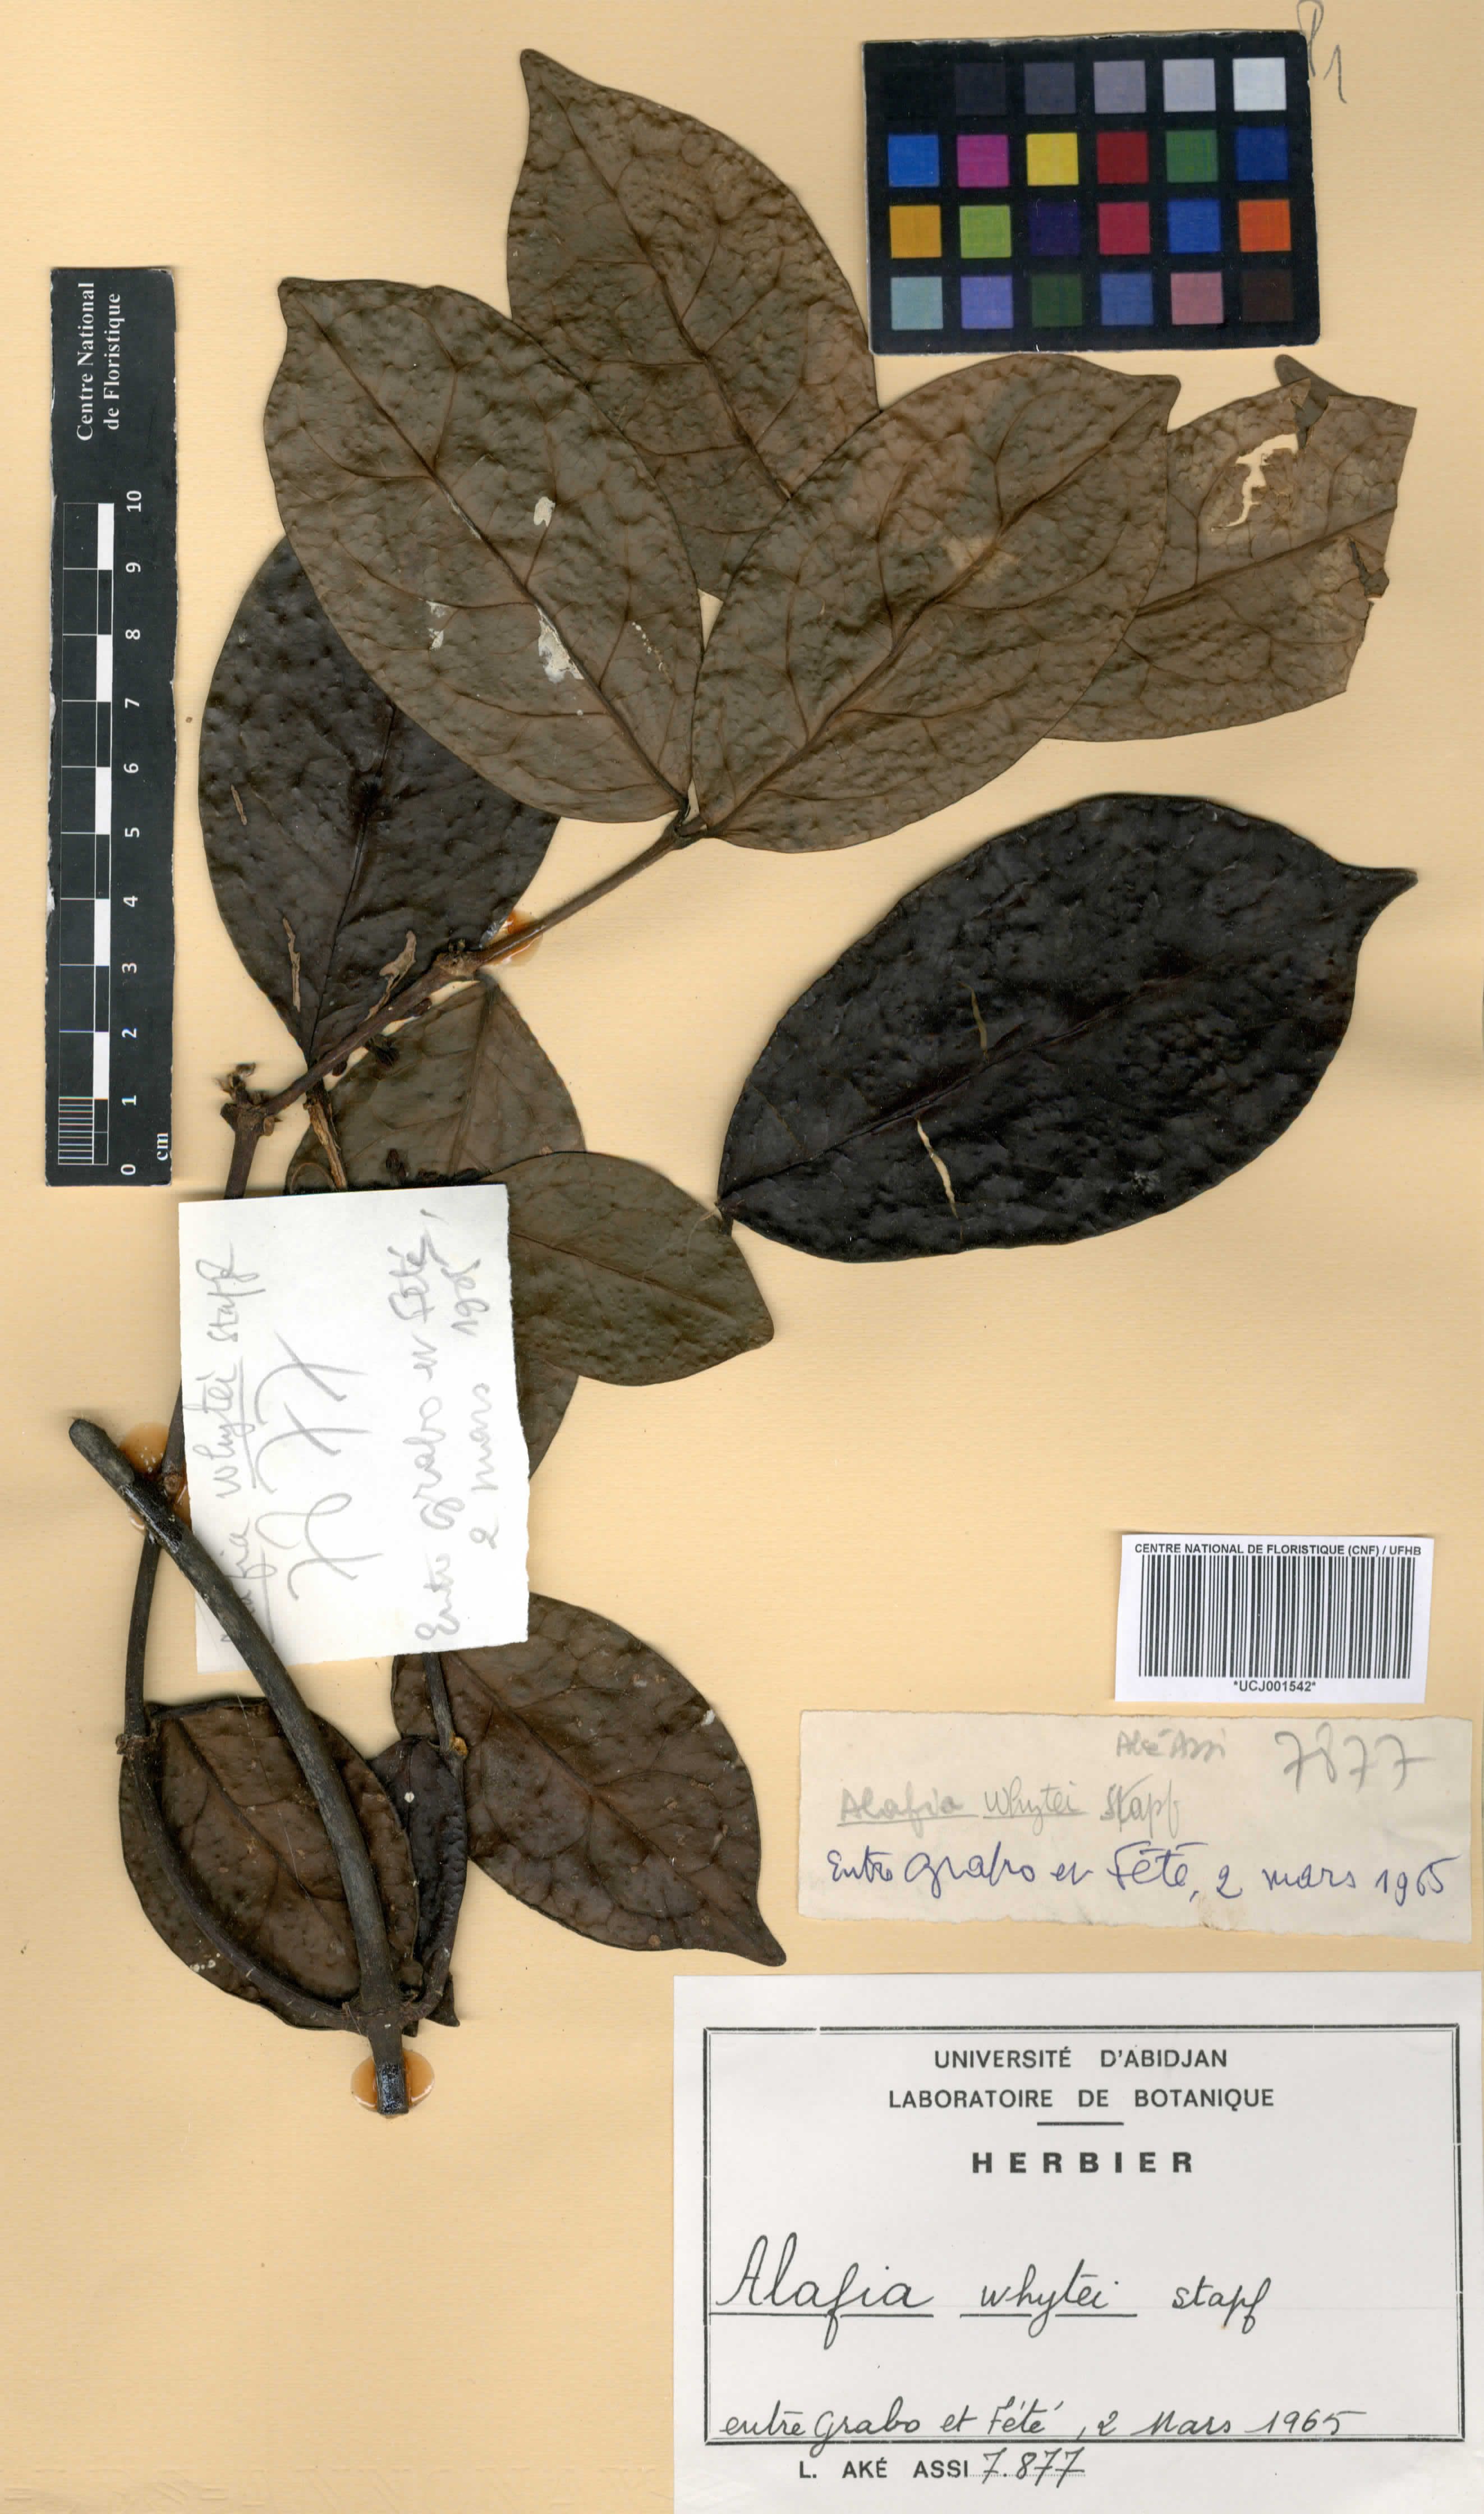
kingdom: Plantae
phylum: Tracheophyta
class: Magnoliopsida
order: Gentianales
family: Apocynaceae
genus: Alafia
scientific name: Alafia whytei
